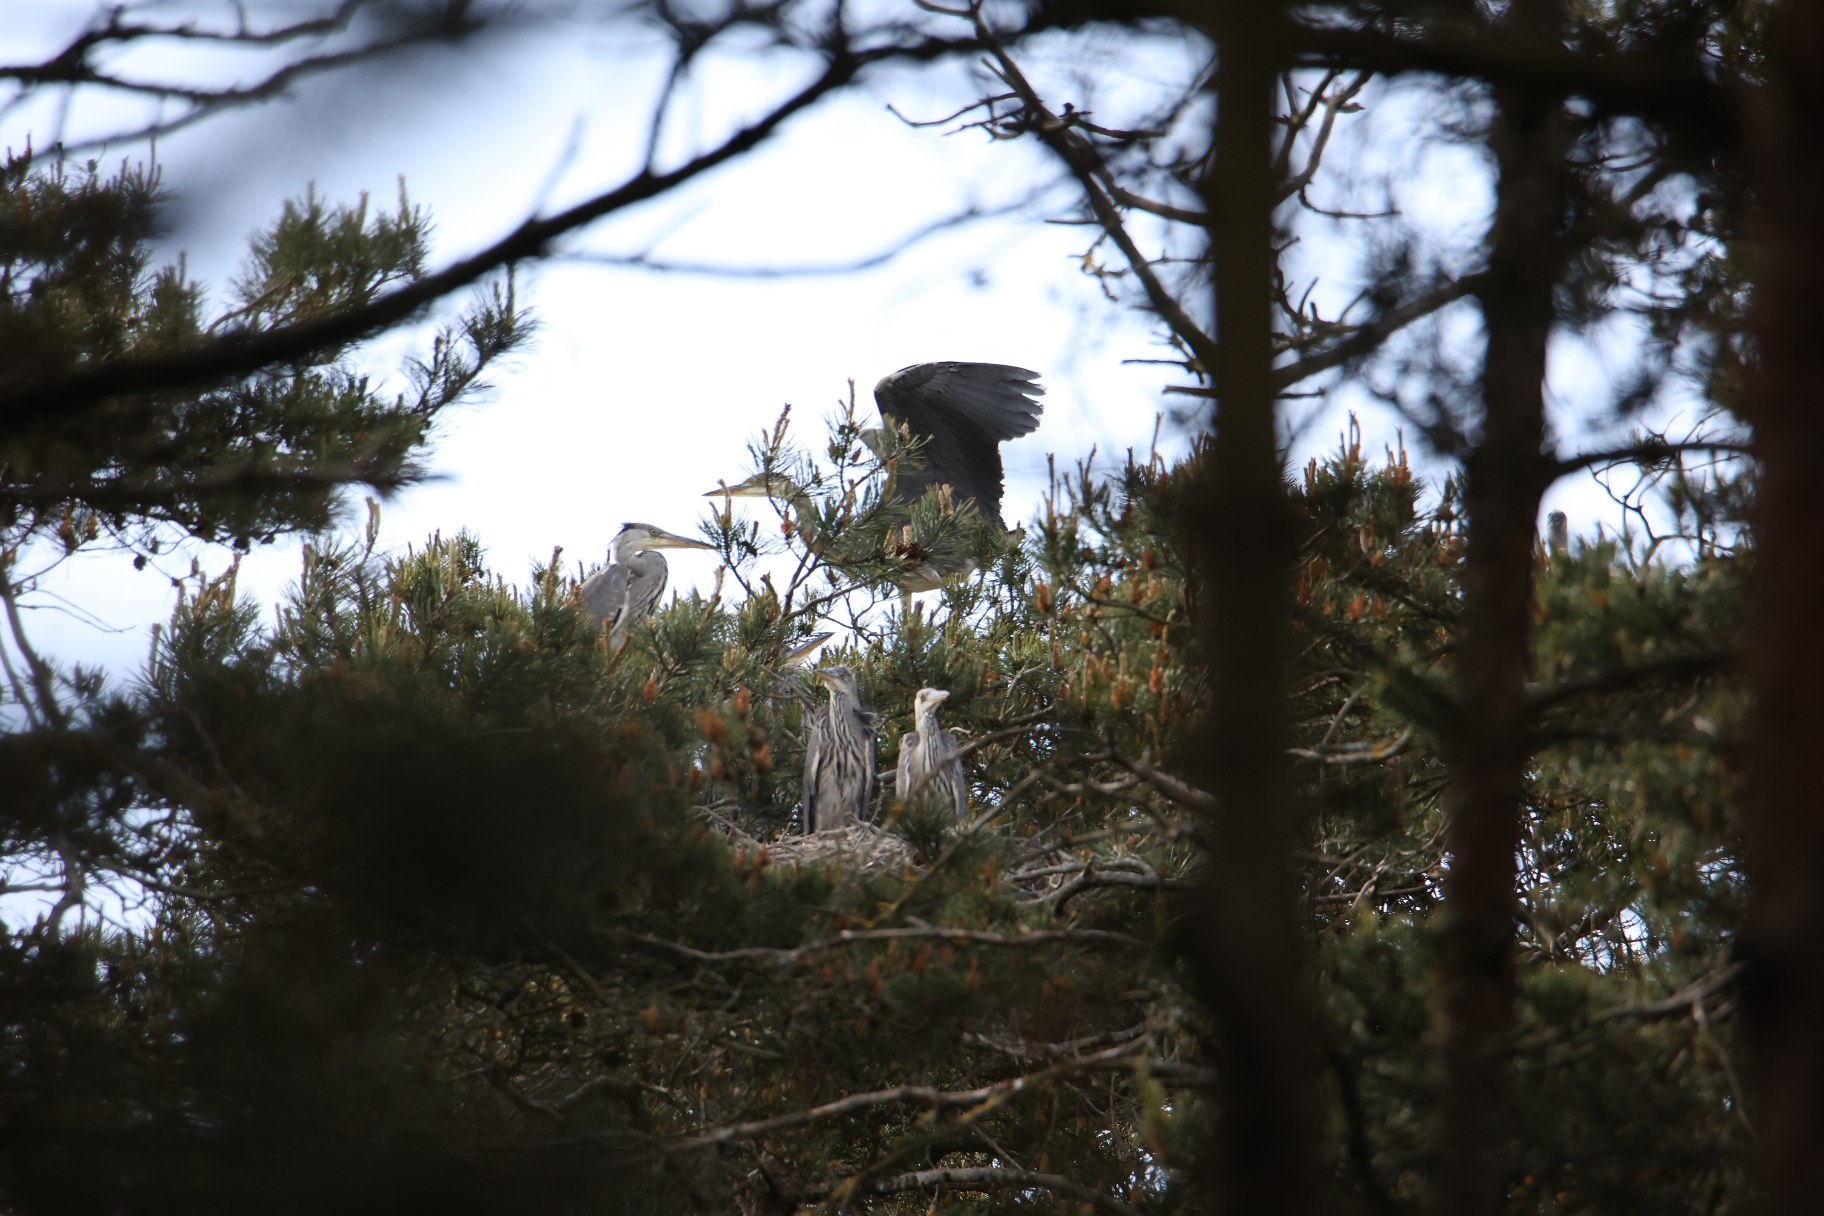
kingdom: Animalia
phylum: Chordata
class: Aves
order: Pelecaniformes
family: Ardeidae
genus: Ardea
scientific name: Ardea cinerea
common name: Fiskehejre
